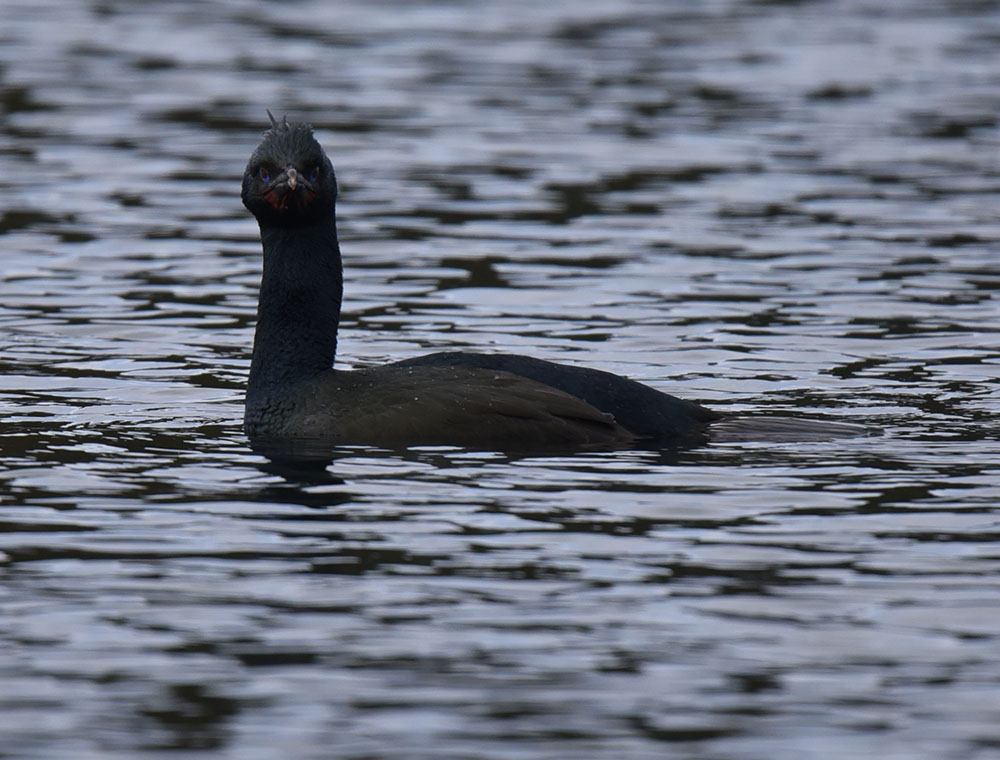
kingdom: Animalia
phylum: Chordata
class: Aves
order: Suliformes
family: Phalacrocoracidae
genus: Phalacrocorax
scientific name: Phalacrocorax sulcirostris
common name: Little black cormorant
